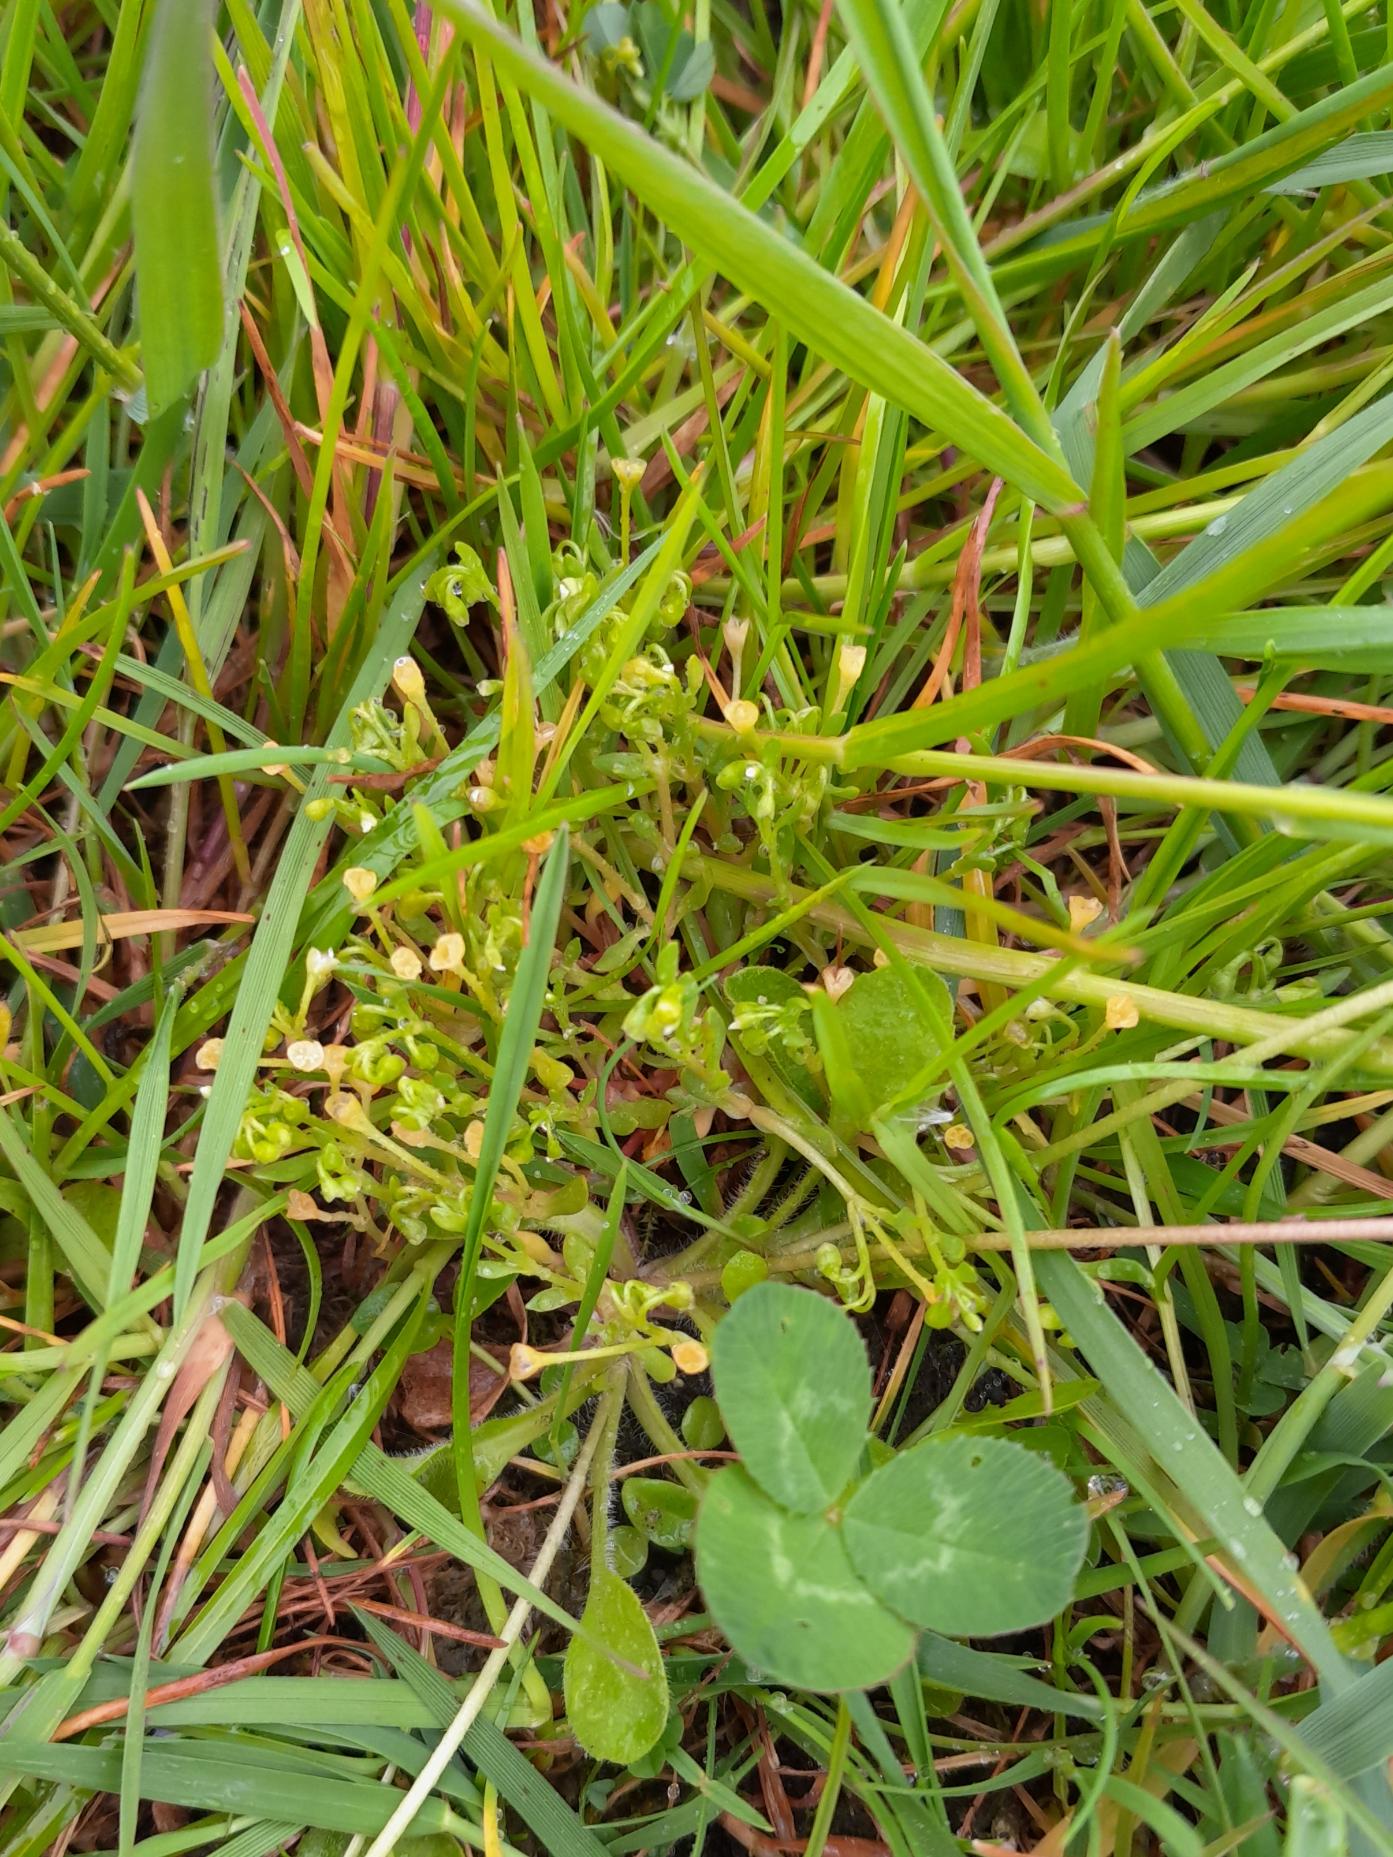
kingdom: Plantae
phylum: Tracheophyta
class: Magnoliopsida
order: Caryophyllales
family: Montiaceae
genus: Montia
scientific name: Montia arvensis
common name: Liden vandarve
